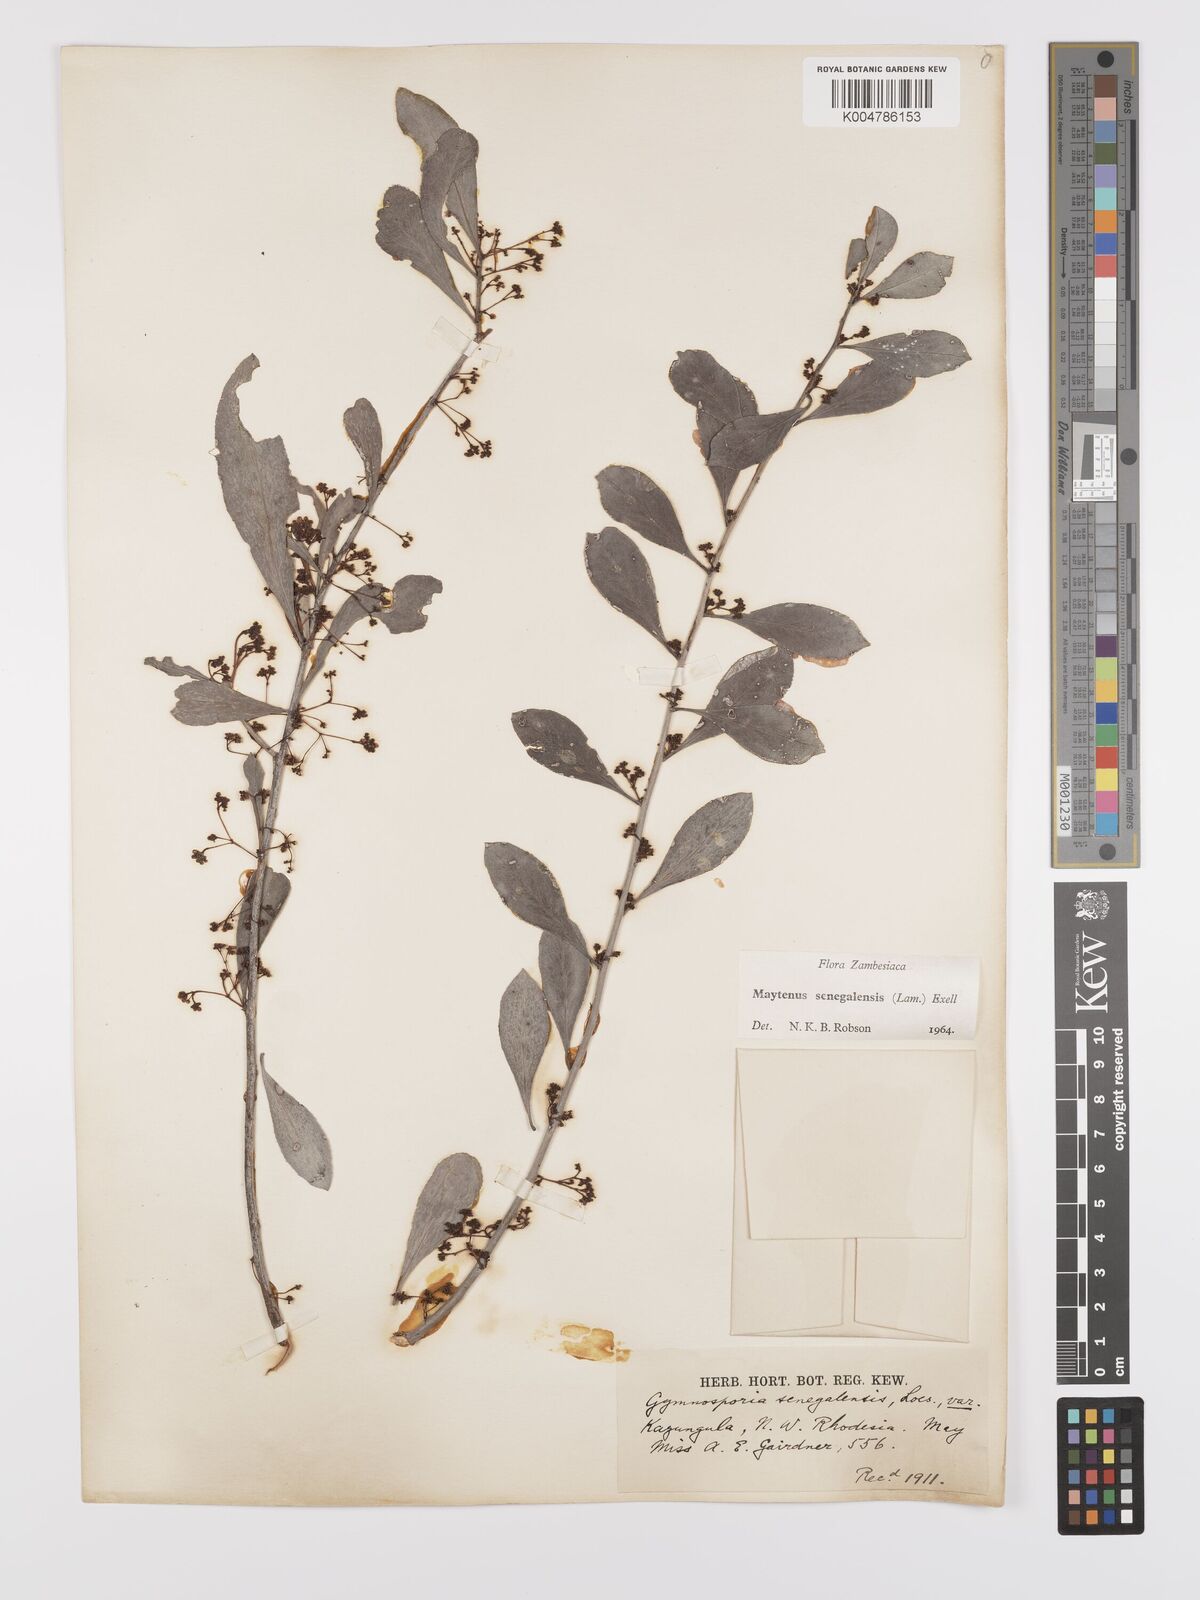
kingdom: Plantae
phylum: Tracheophyta
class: Magnoliopsida
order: Celastrales
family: Celastraceae
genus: Gymnosporia
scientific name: Gymnosporia senegalensis
